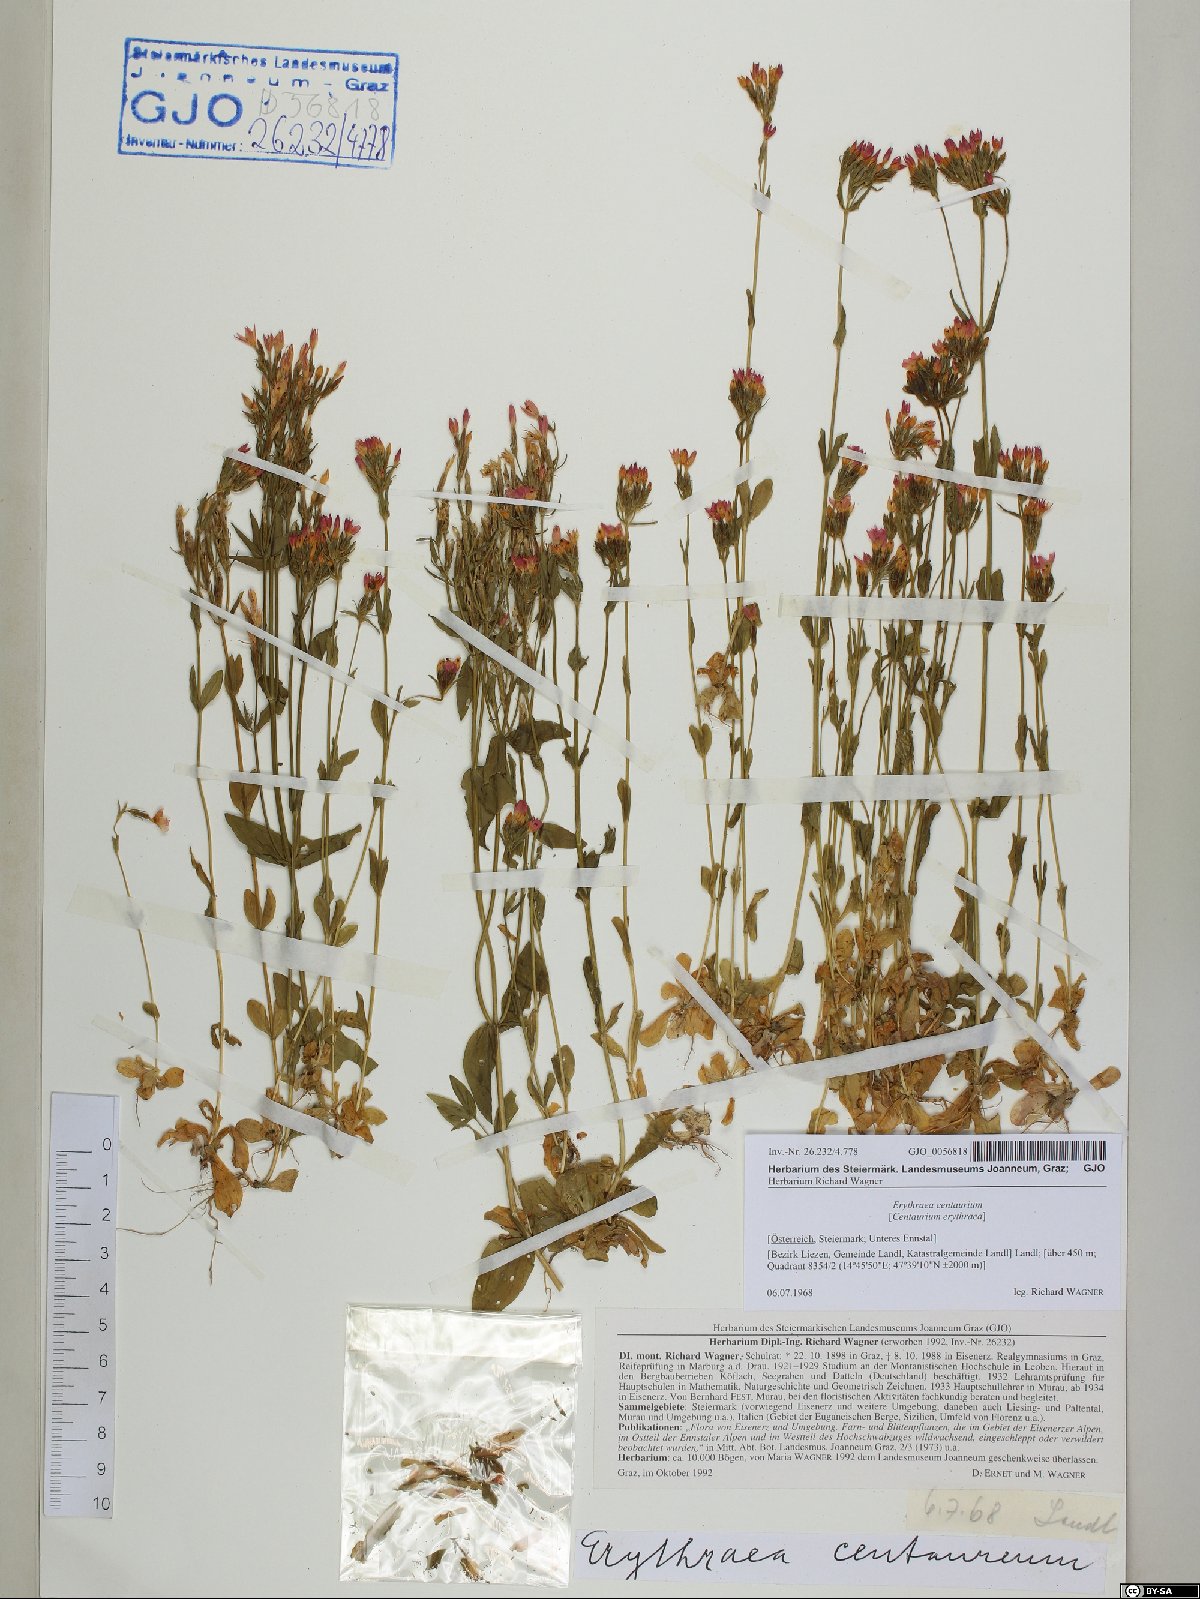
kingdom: Plantae
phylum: Tracheophyta
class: Magnoliopsida
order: Gentianales
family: Gentianaceae
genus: Centaurium
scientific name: Centaurium erythraea
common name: Common centaury
